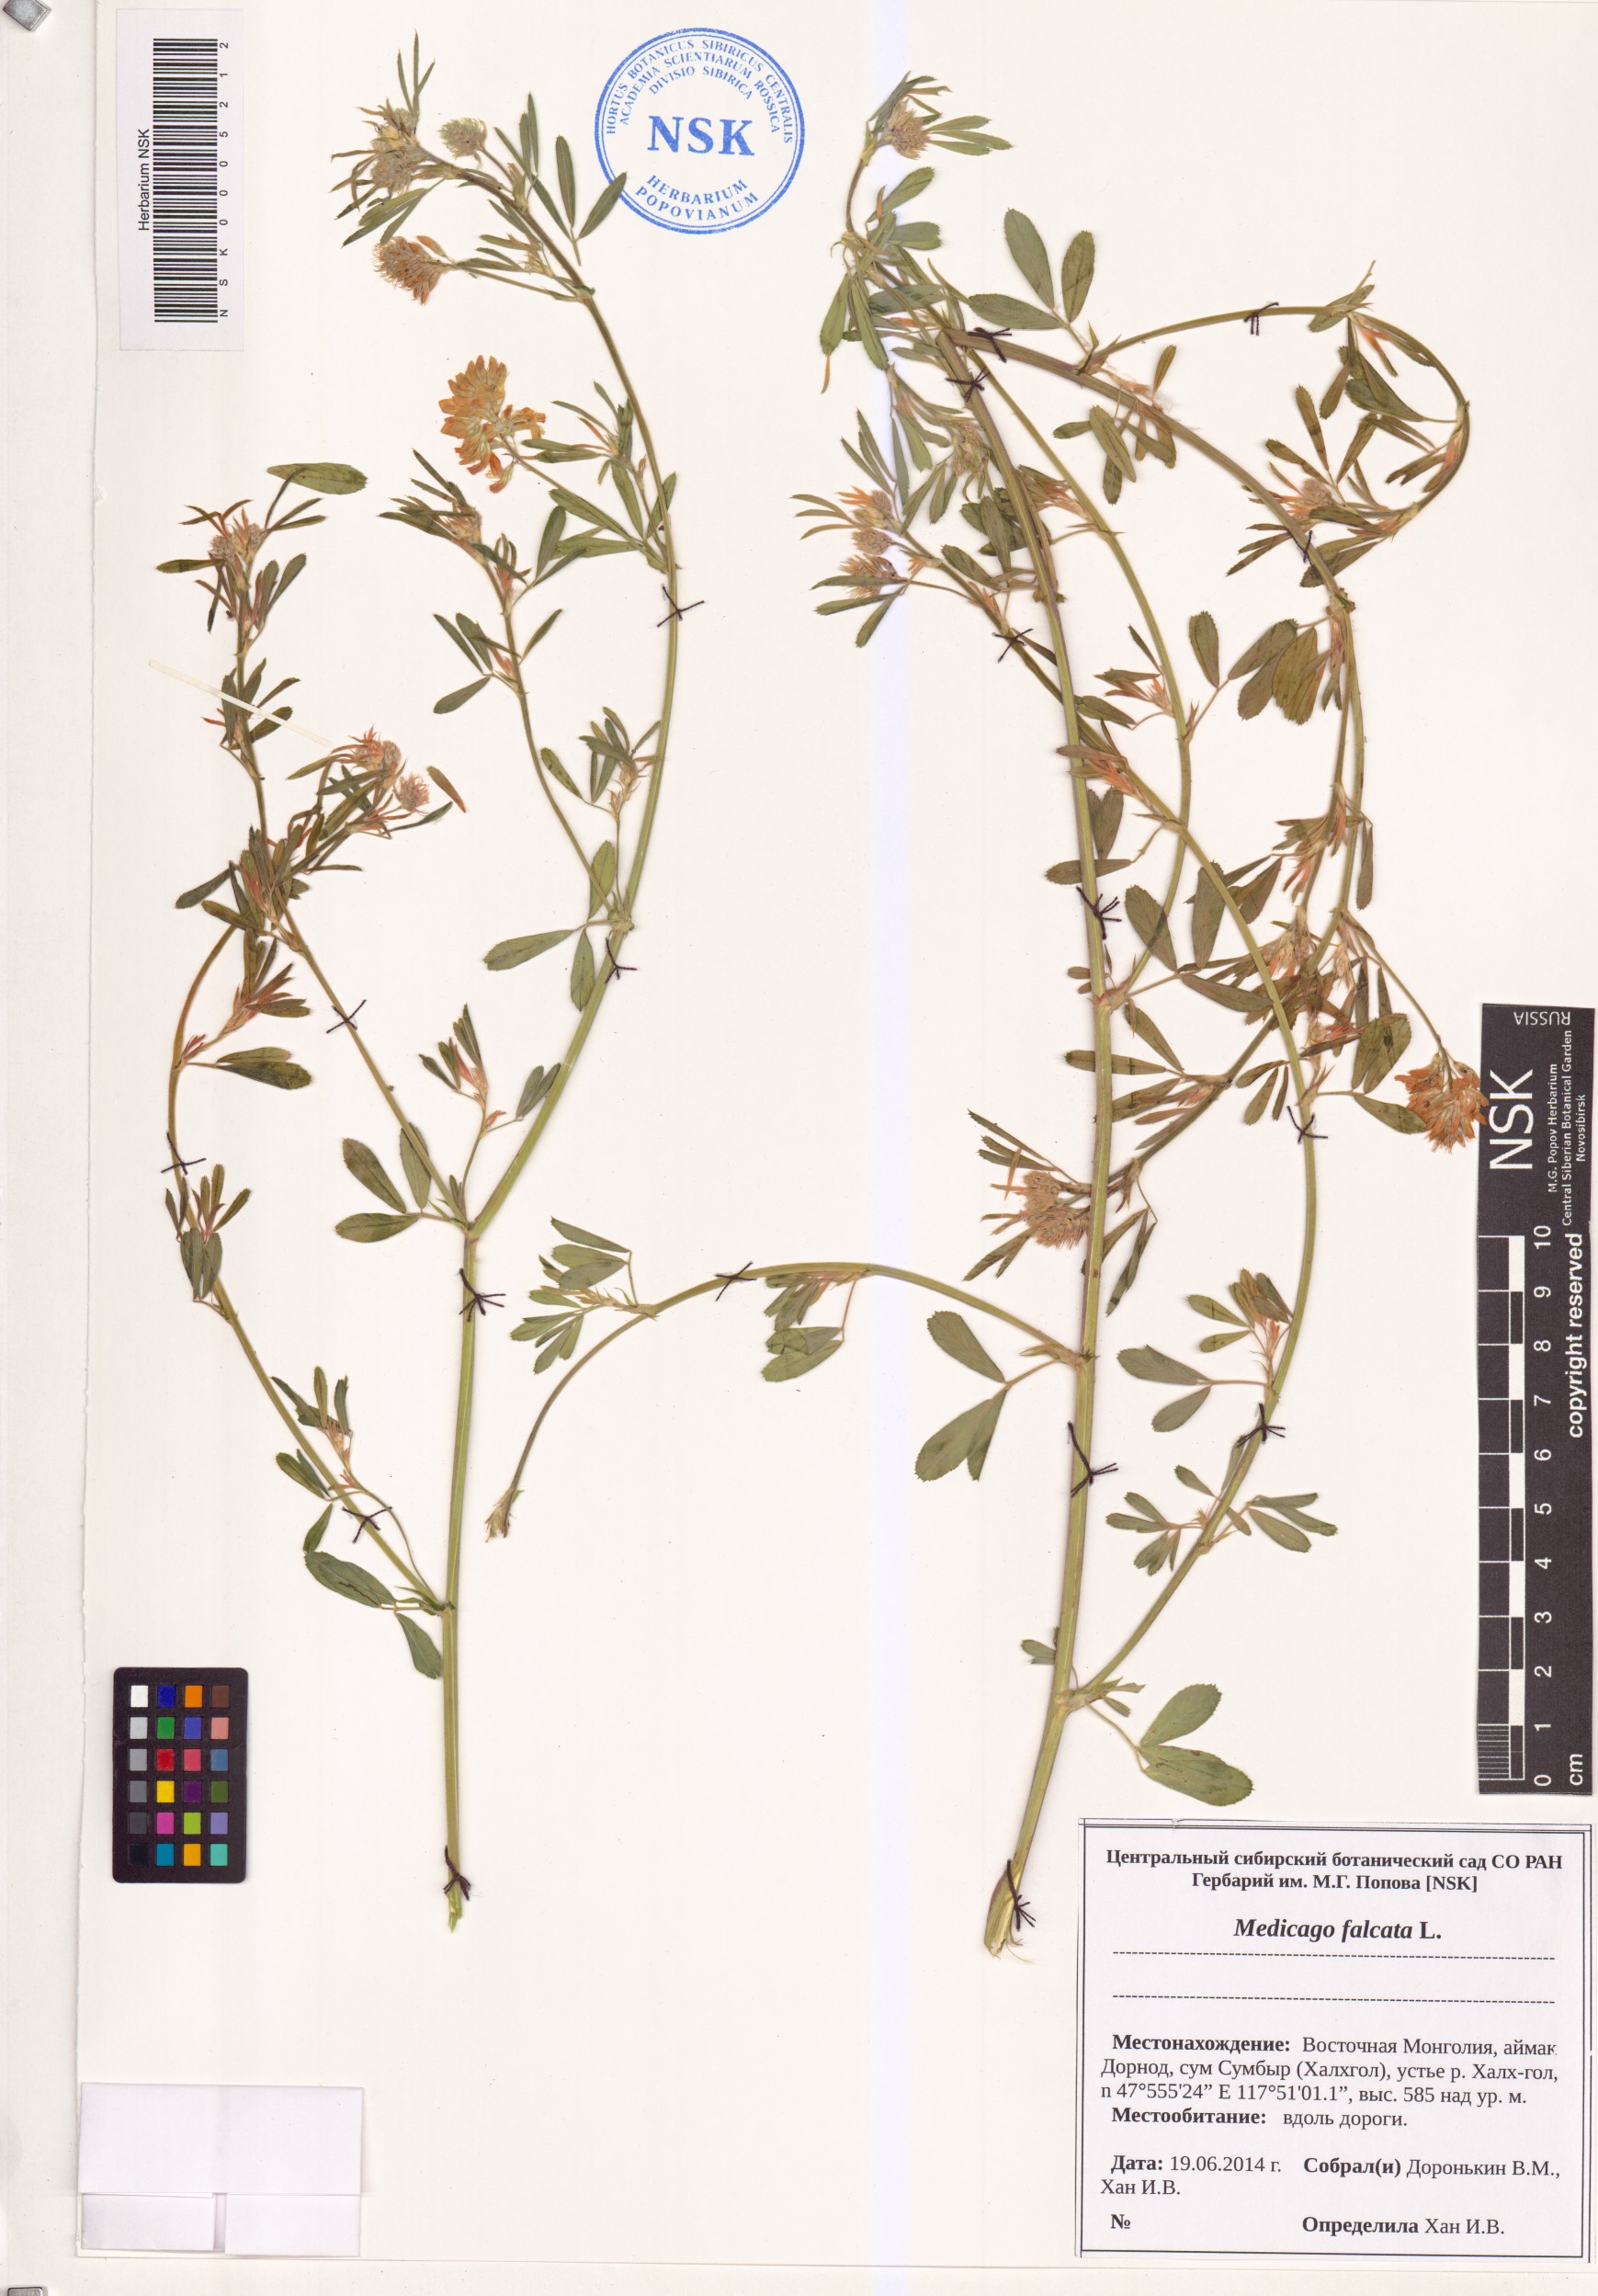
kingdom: Plantae
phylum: Tracheophyta
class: Magnoliopsida
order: Fabales
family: Fabaceae
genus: Medicago
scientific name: Medicago falcata
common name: Sickle medick
